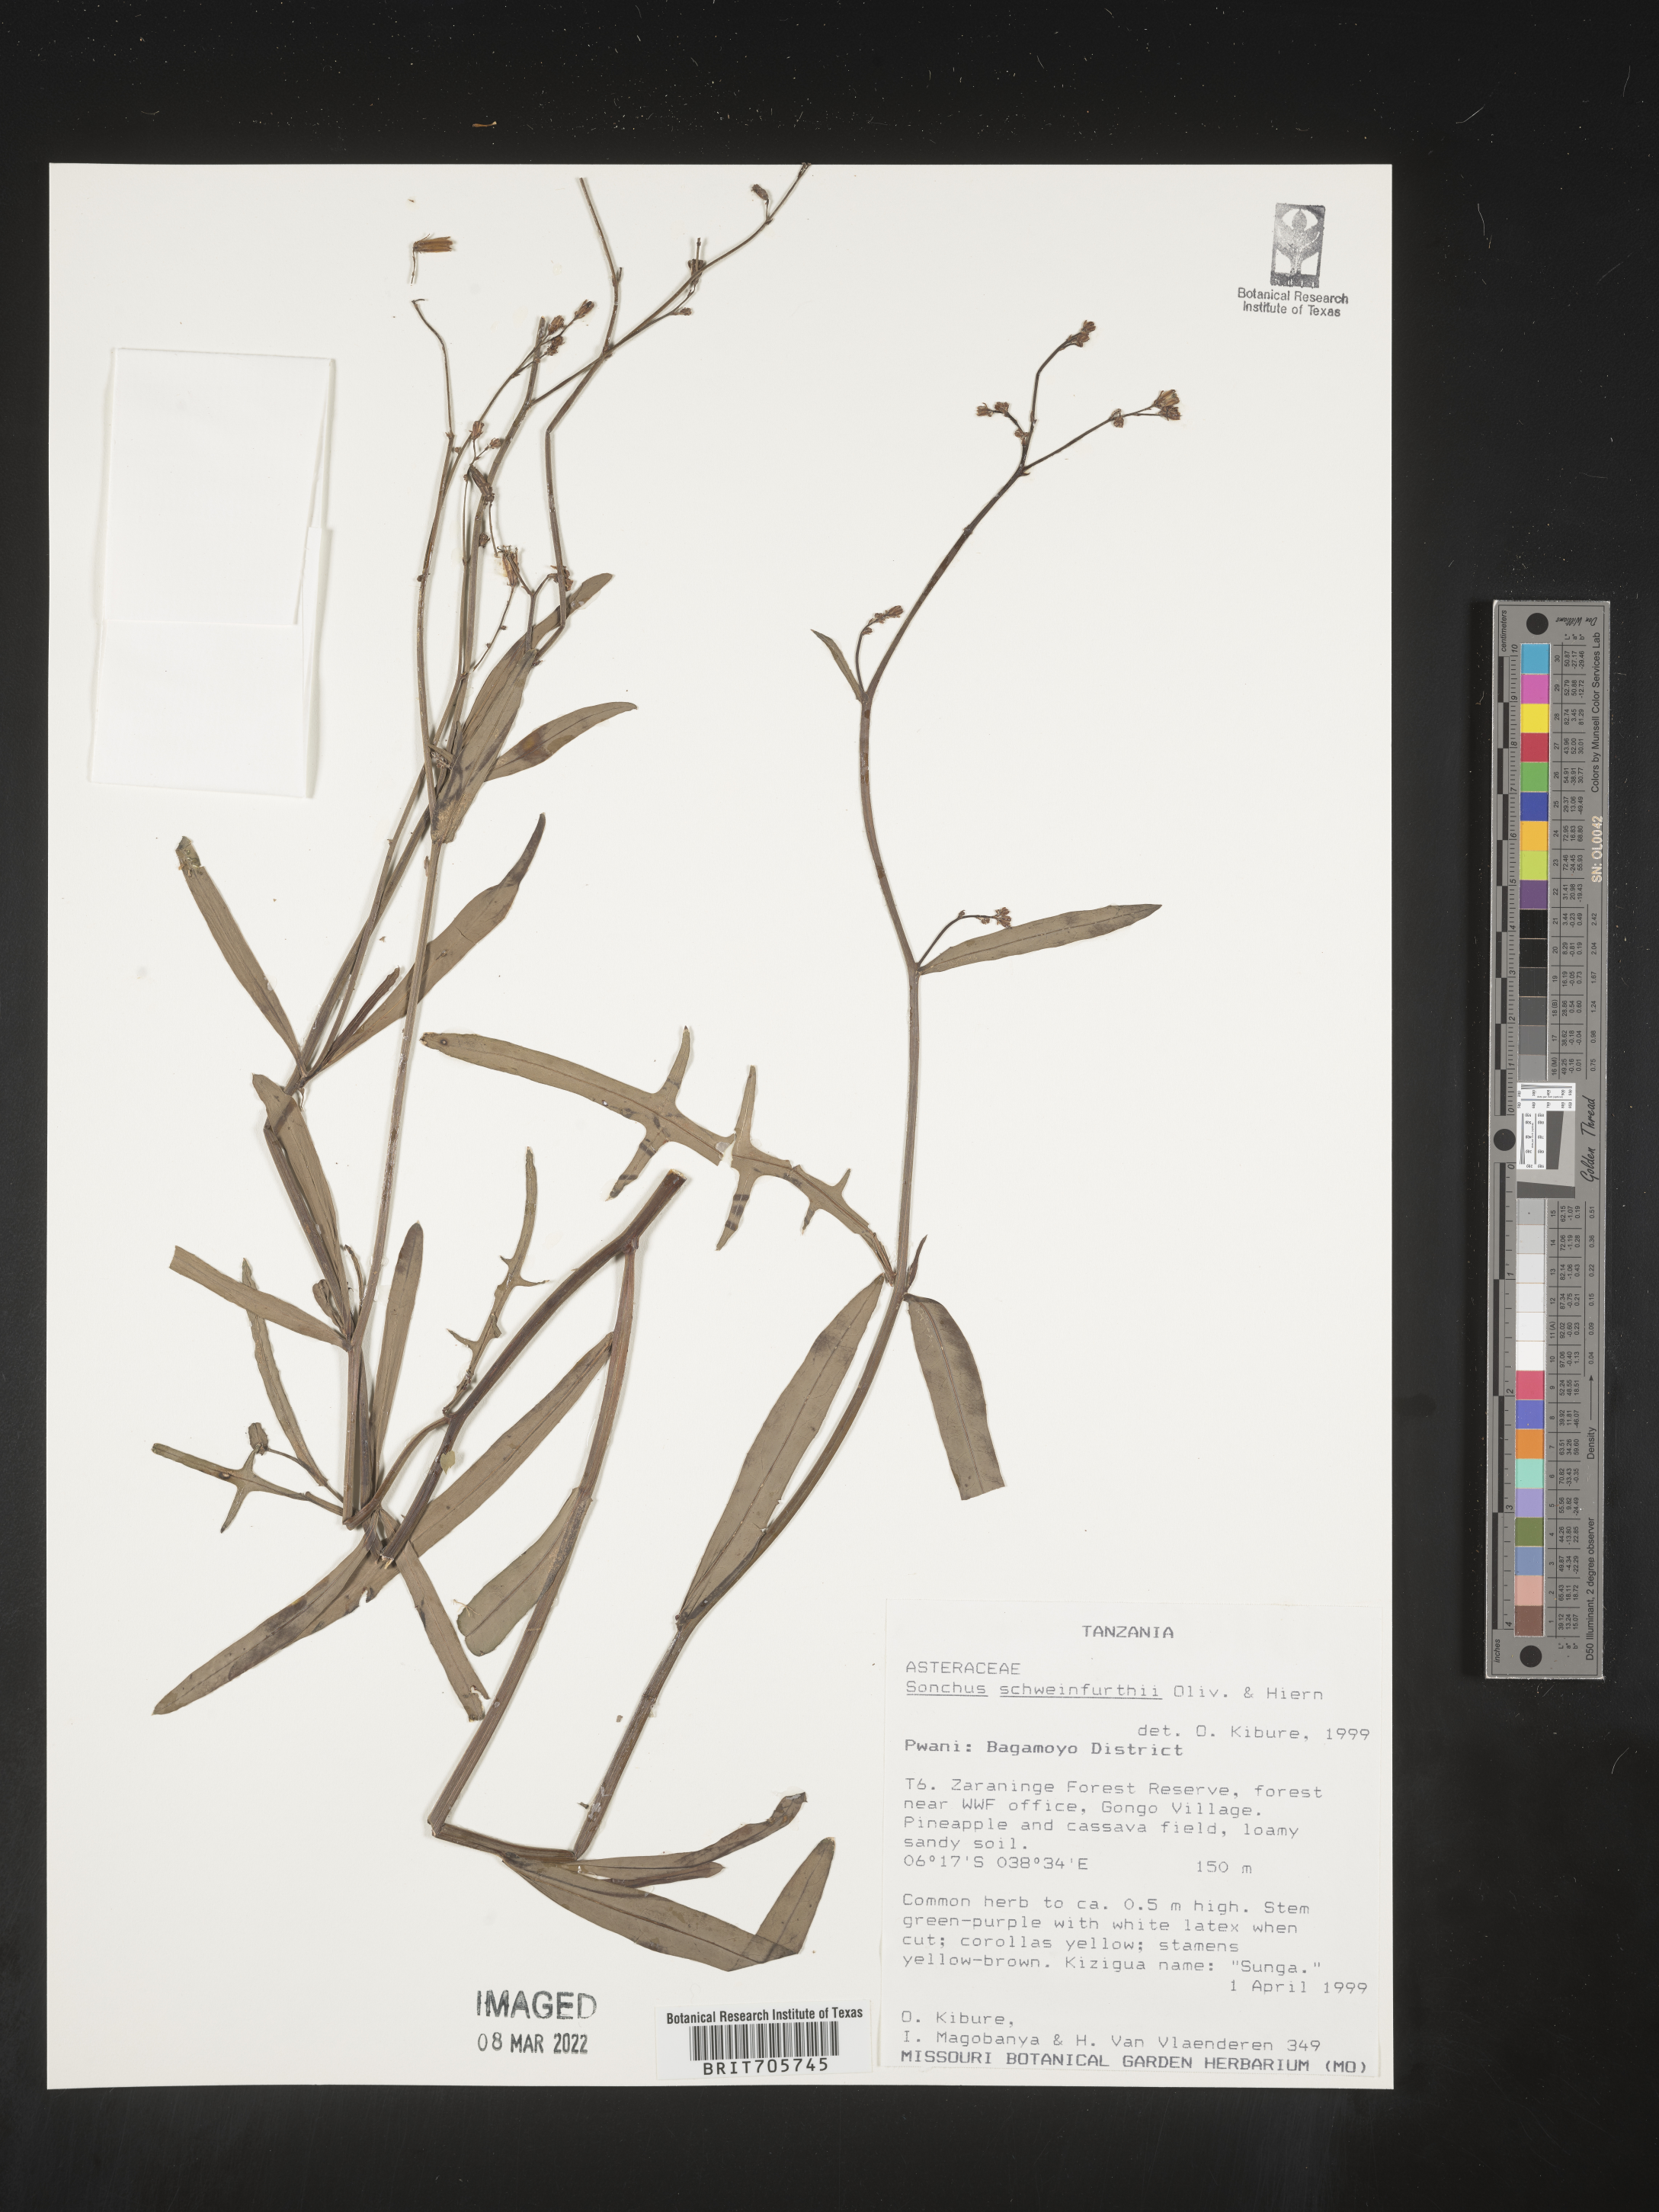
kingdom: Plantae
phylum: Tracheophyta
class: Magnoliopsida
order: Asterales
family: Asteraceae
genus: Sonchus
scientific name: Sonchus
